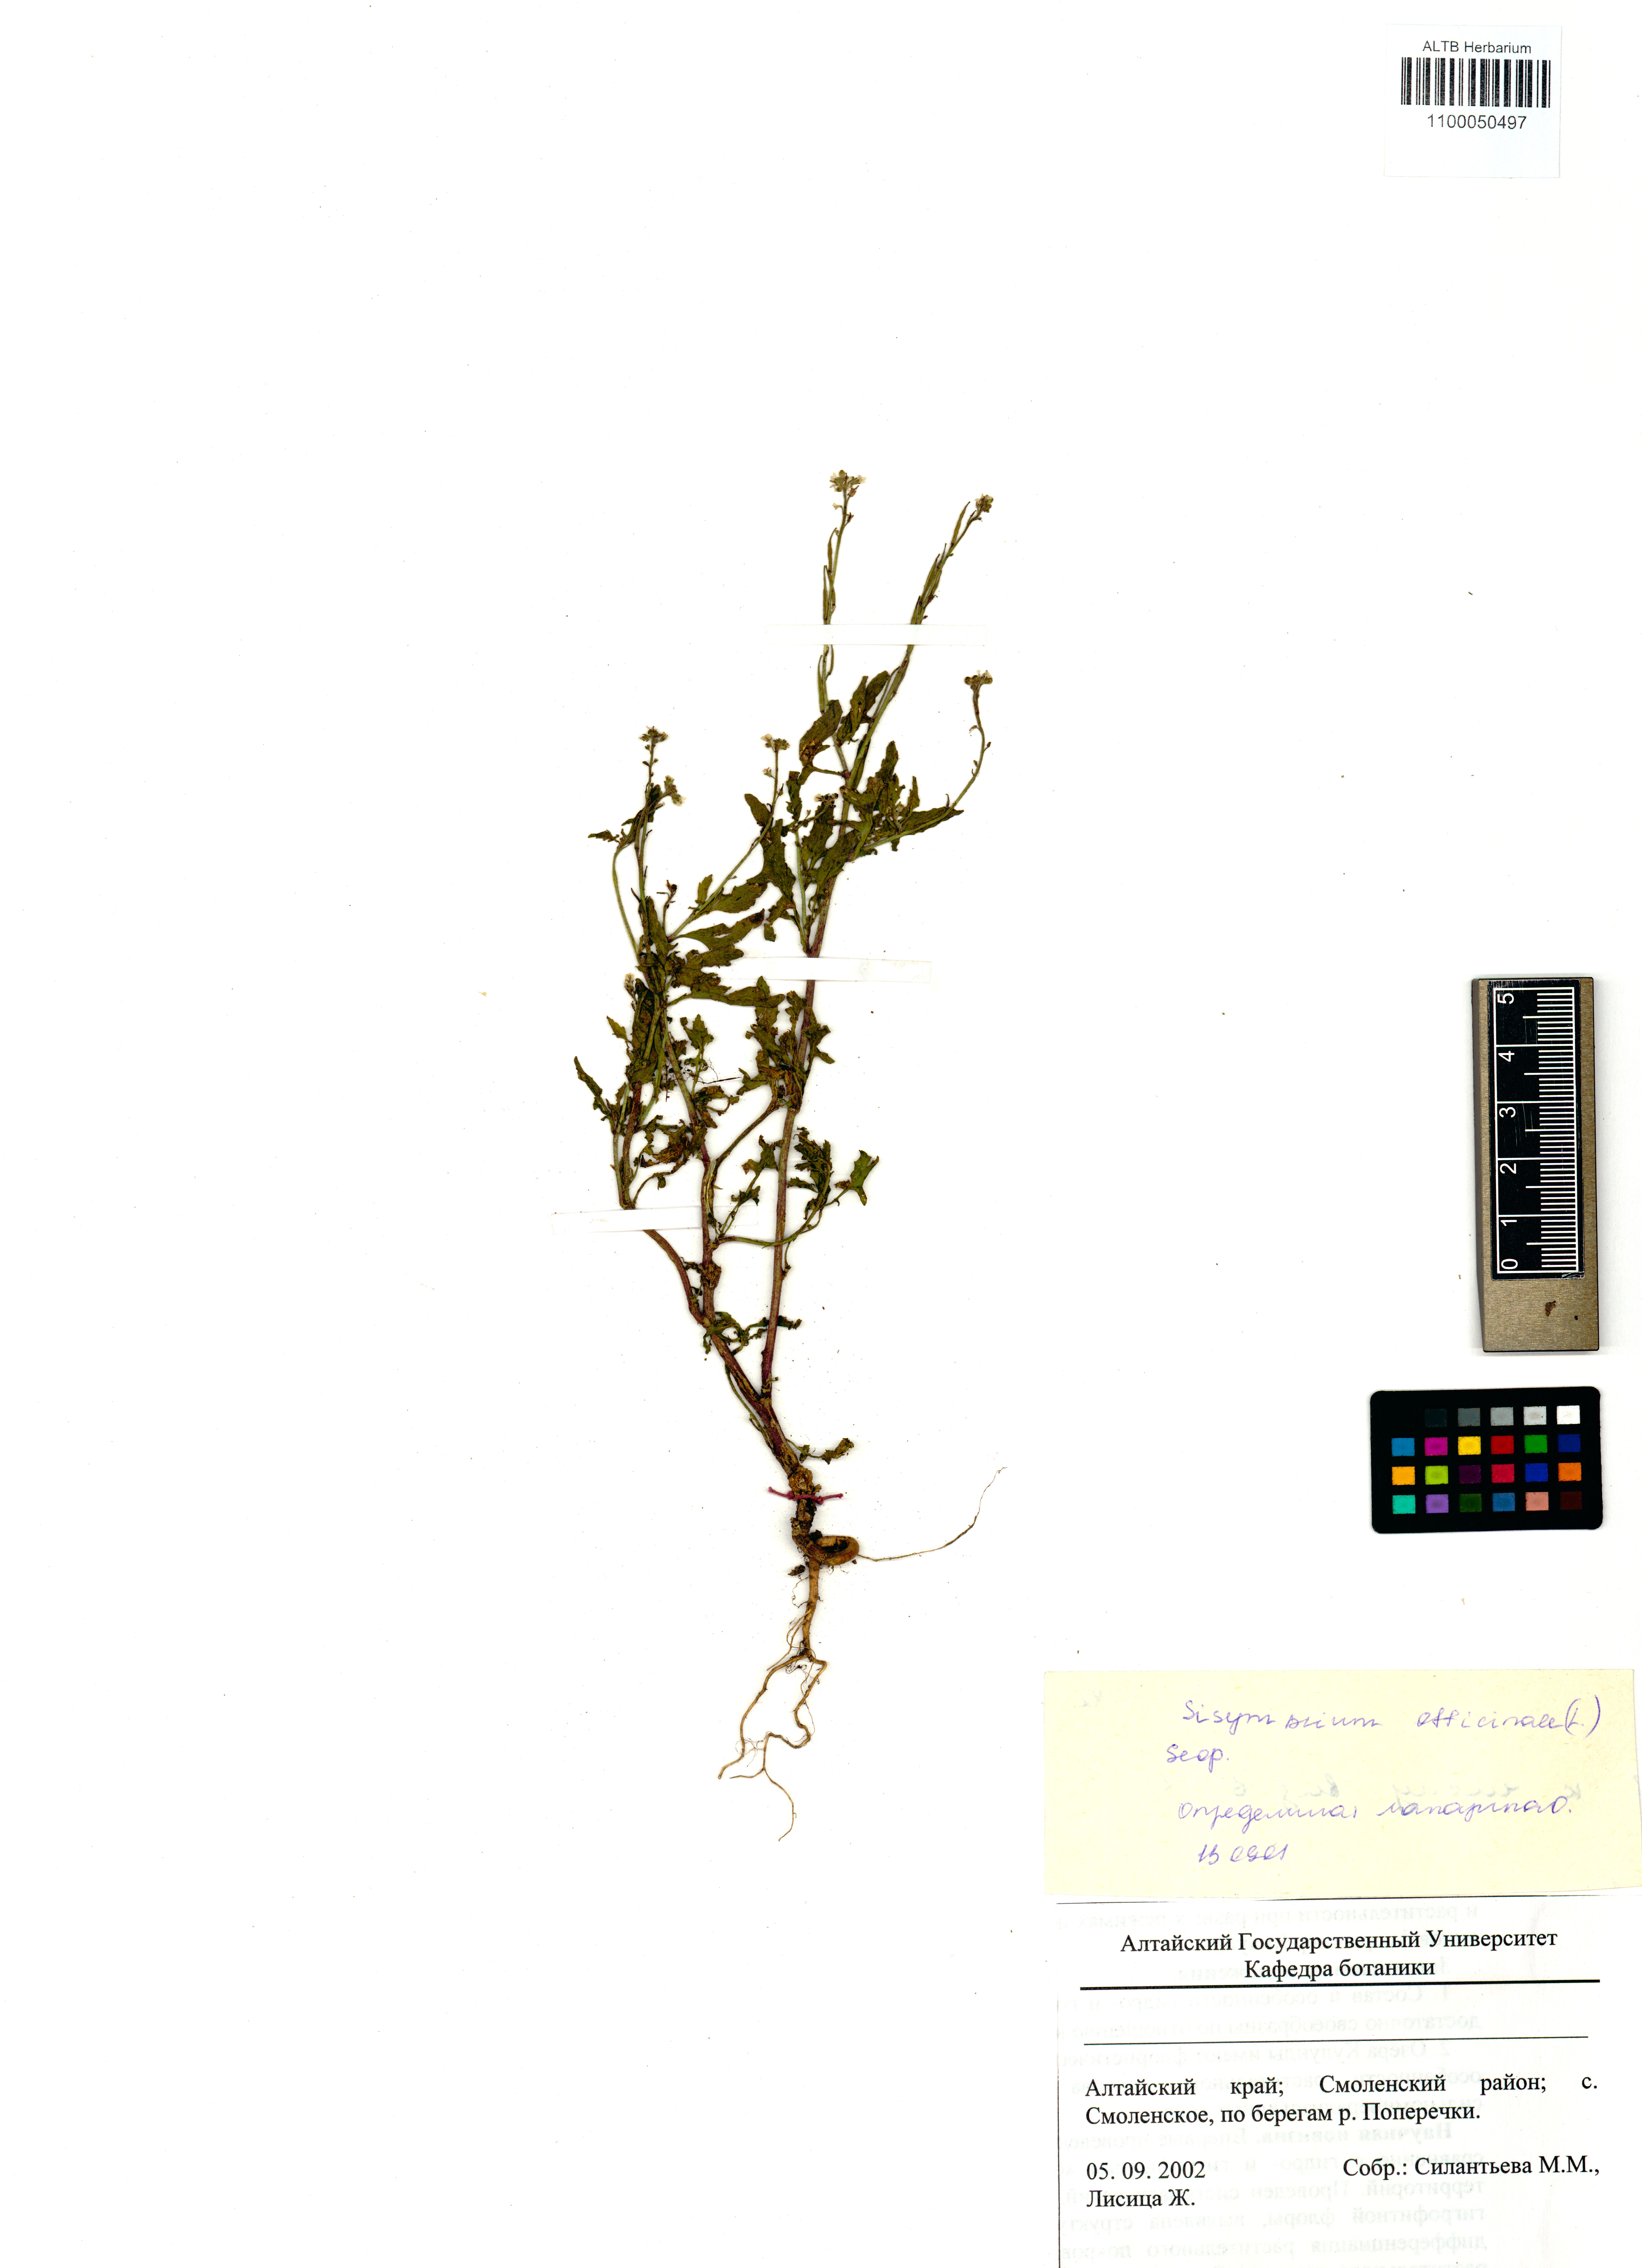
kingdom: Plantae
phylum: Tracheophyta
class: Magnoliopsida
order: Brassicales
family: Brassicaceae
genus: Sisymbrium
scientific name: Sisymbrium officinale
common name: Hedge mustard
